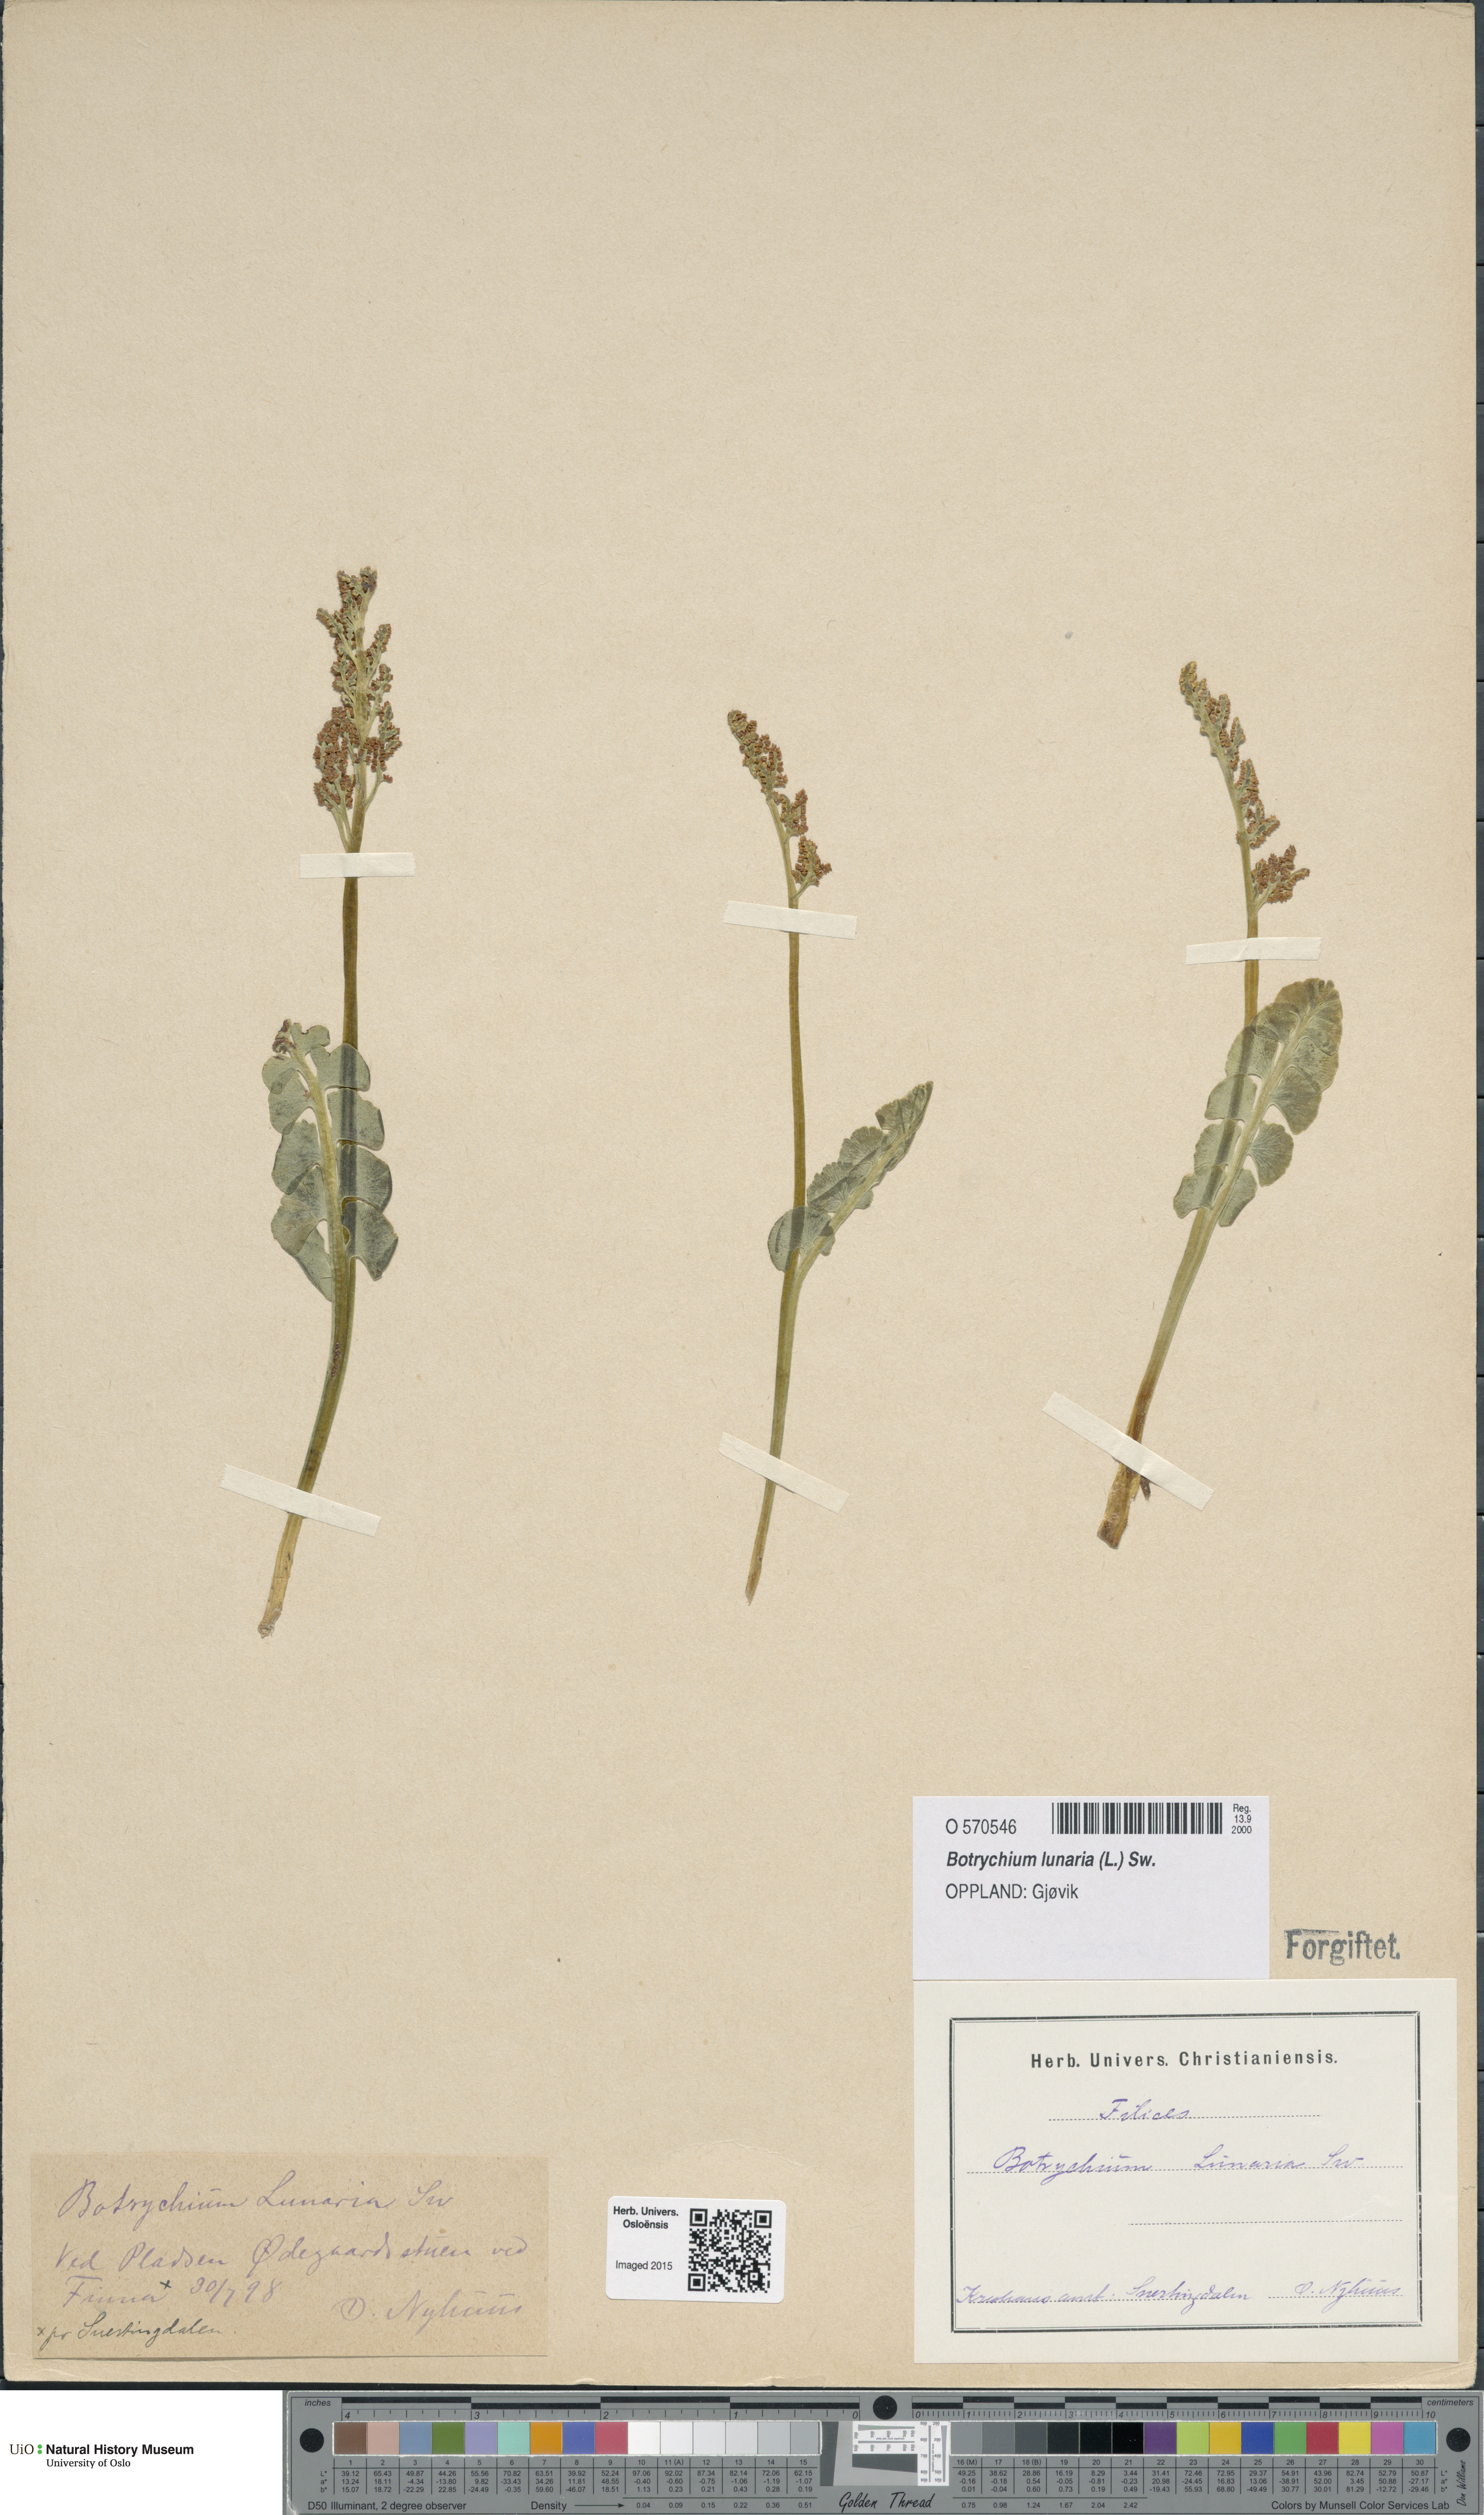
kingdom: Plantae
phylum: Tracheophyta
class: Polypodiopsida
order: Ophioglossales
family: Ophioglossaceae
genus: Botrychium
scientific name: Botrychium lunaria
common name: Moonwort
